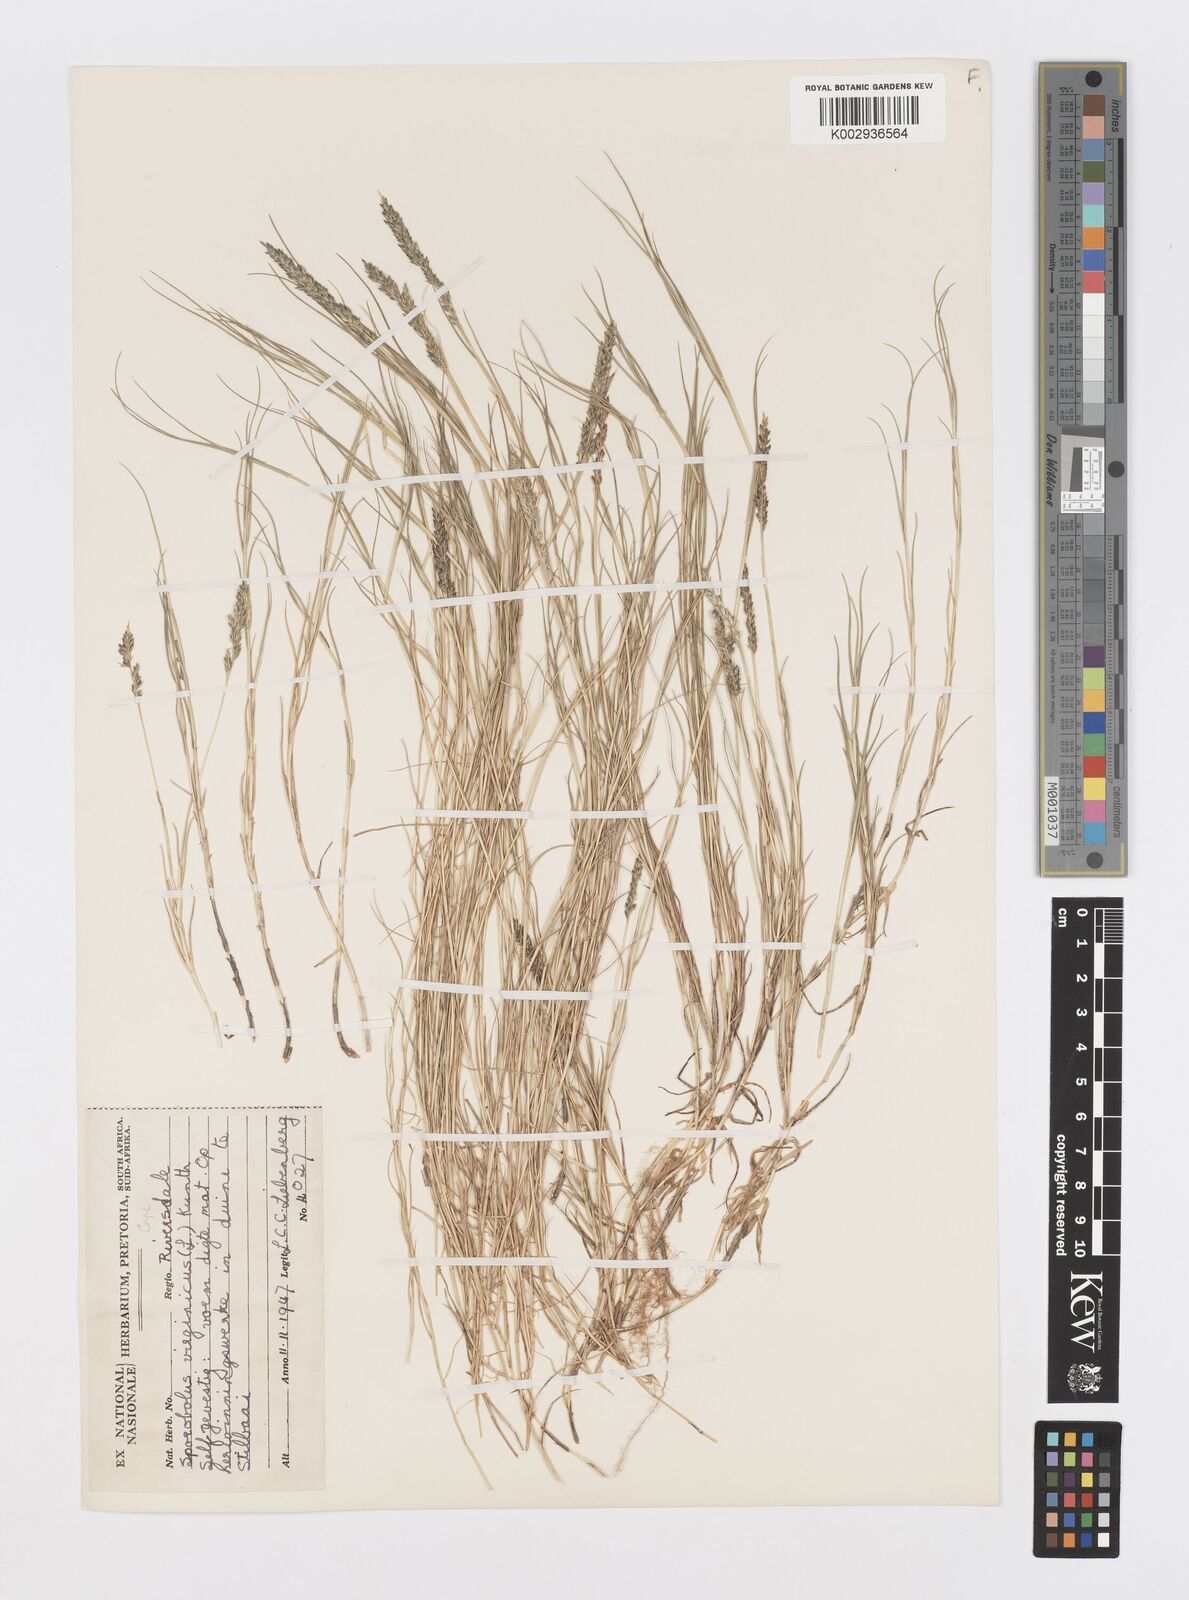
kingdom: Plantae
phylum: Tracheophyta
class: Liliopsida
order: Poales
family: Poaceae
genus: Sporobolus
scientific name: Sporobolus virginicus
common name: Beach dropseed
